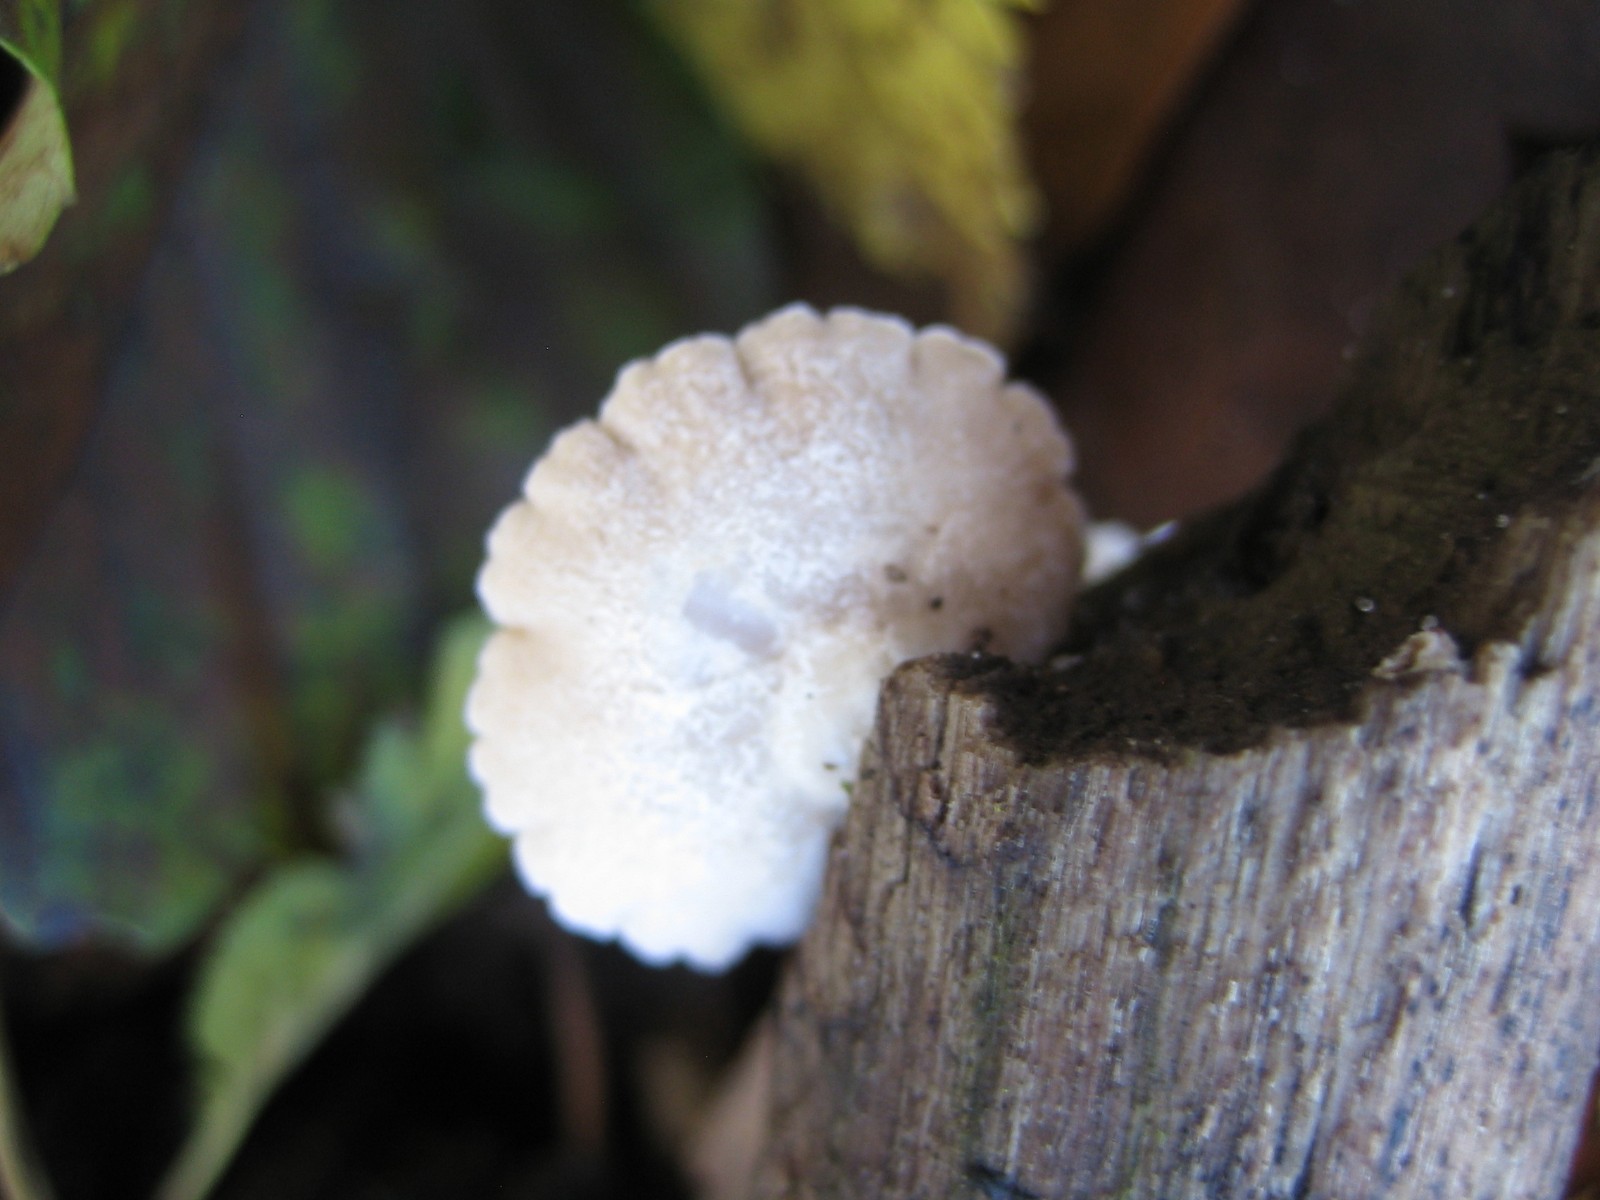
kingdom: Fungi
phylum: Basidiomycota
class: Agaricomycetes
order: Agaricales
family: Crepidotaceae
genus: Crepidotus
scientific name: Crepidotus
